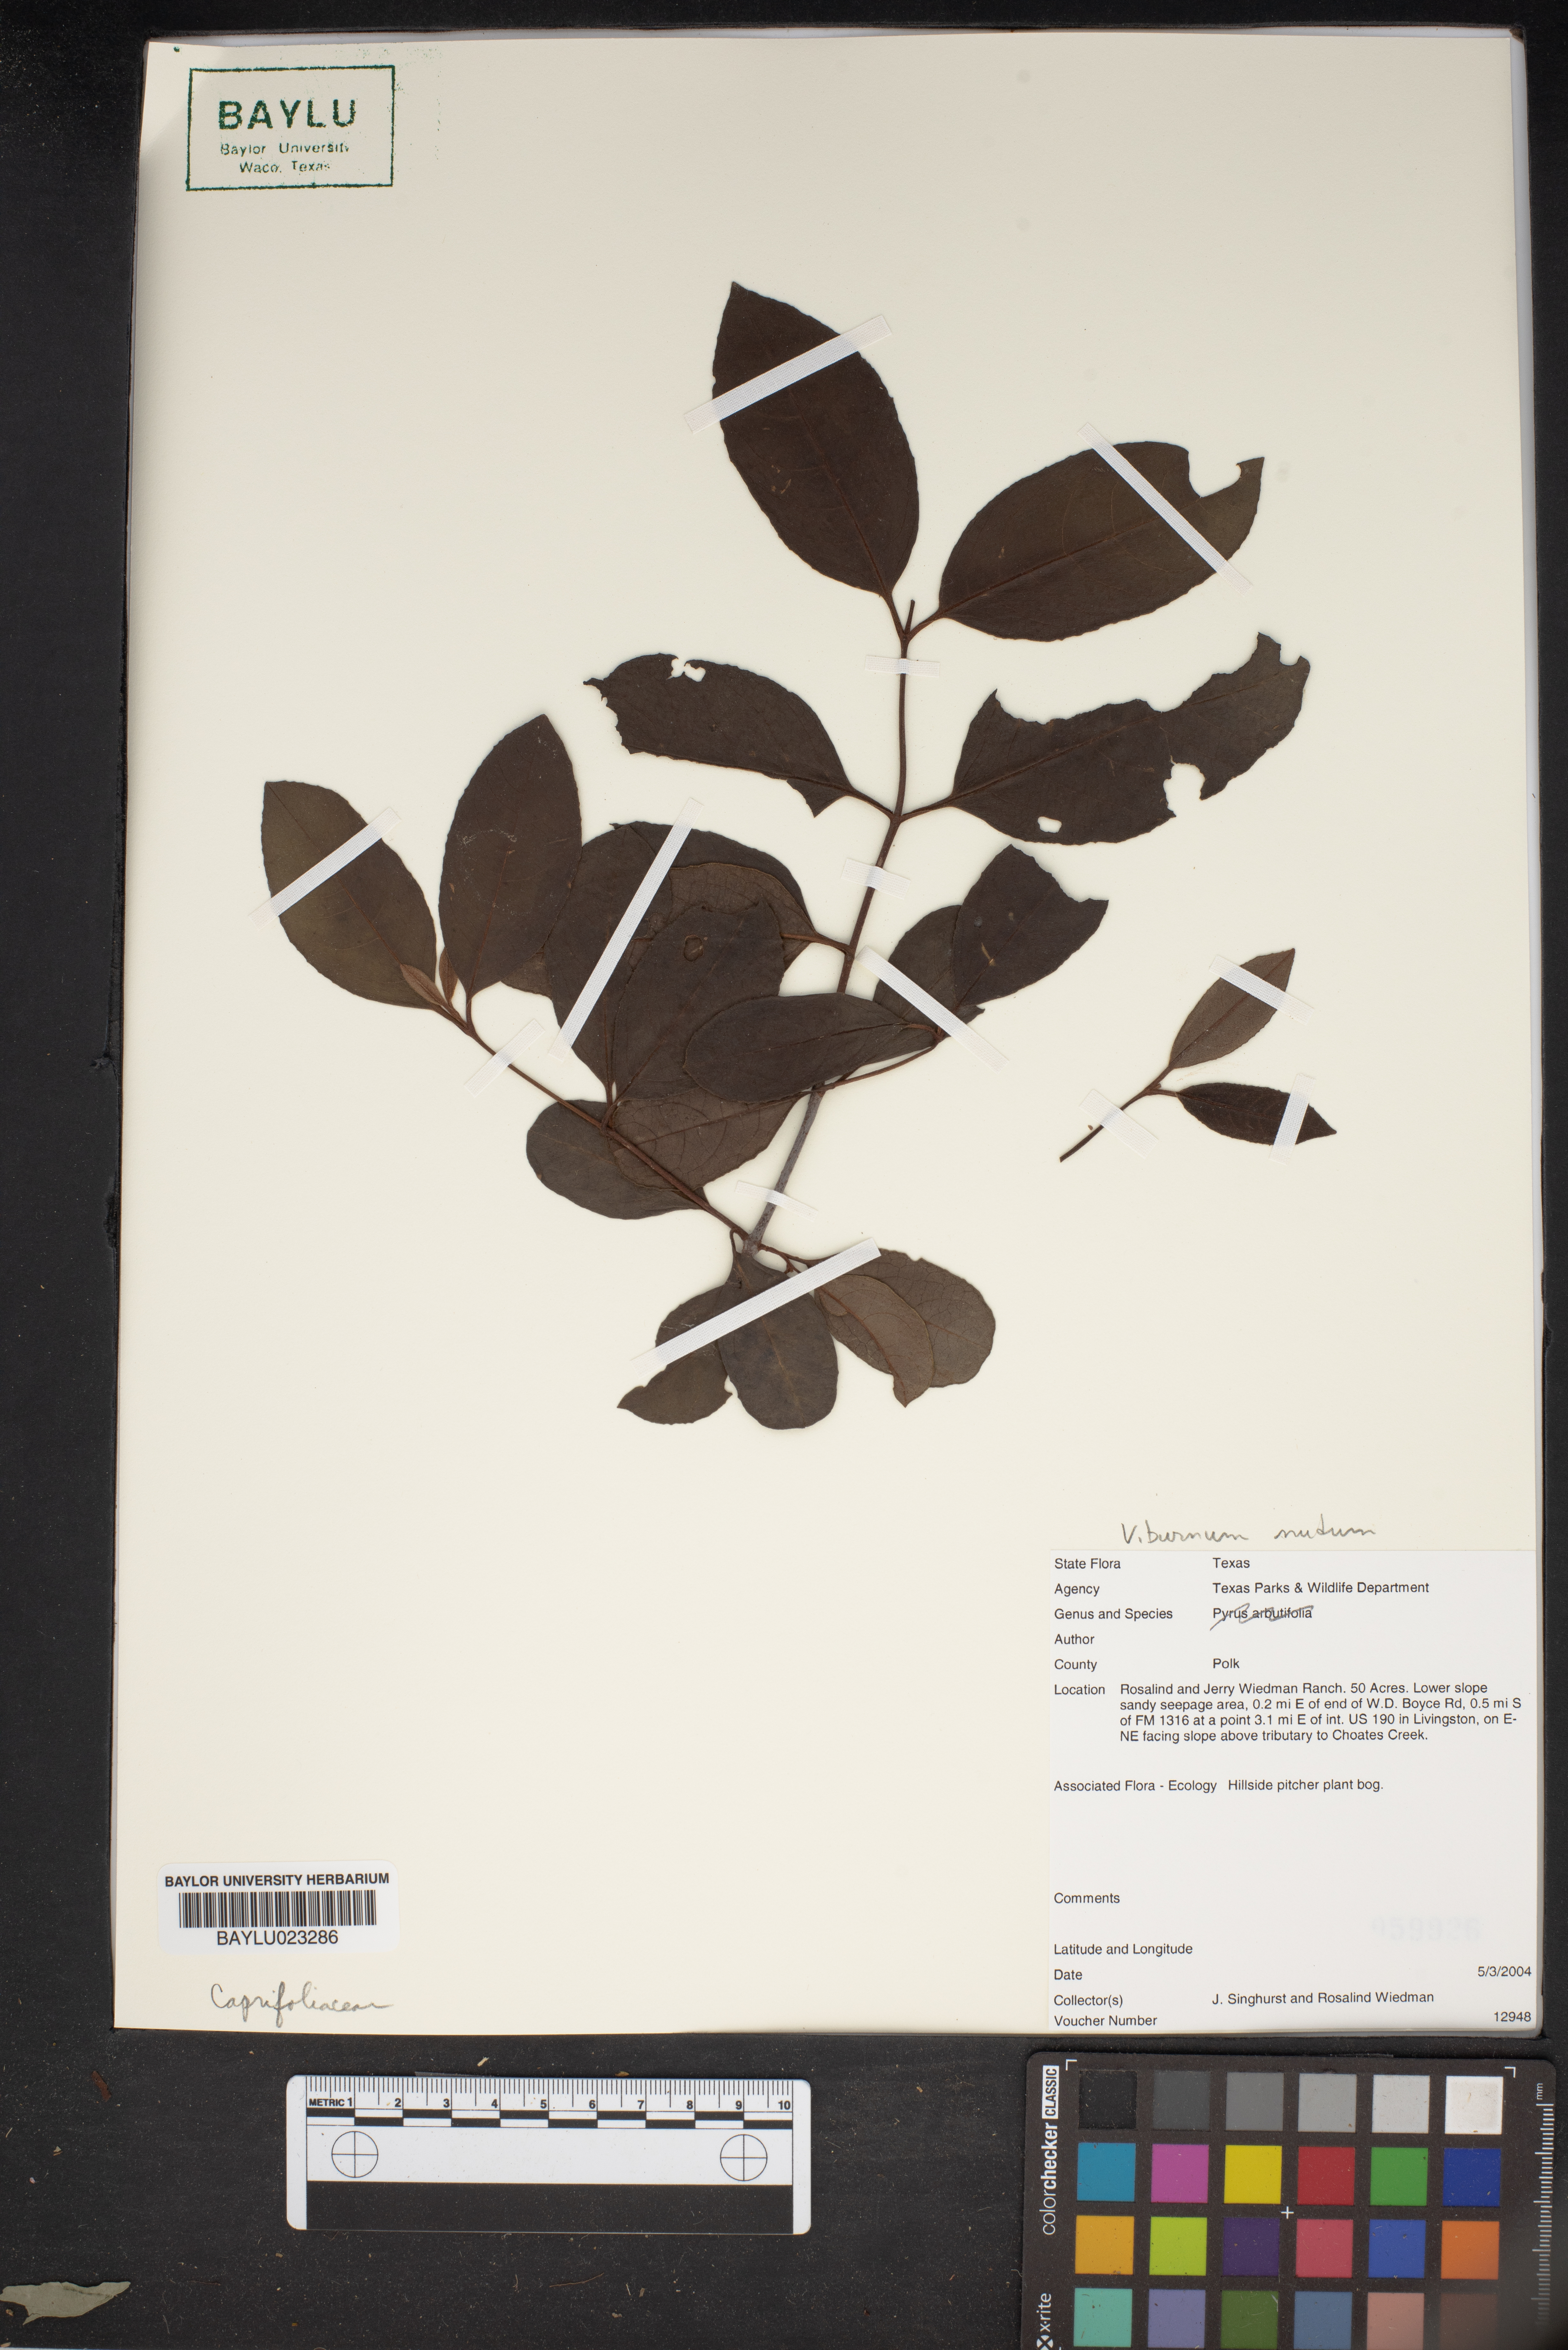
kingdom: Plantae
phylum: Tracheophyta
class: Magnoliopsida
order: Dipsacales
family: Viburnaceae
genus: Viburnum
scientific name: Viburnum nudum
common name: Possum haw
